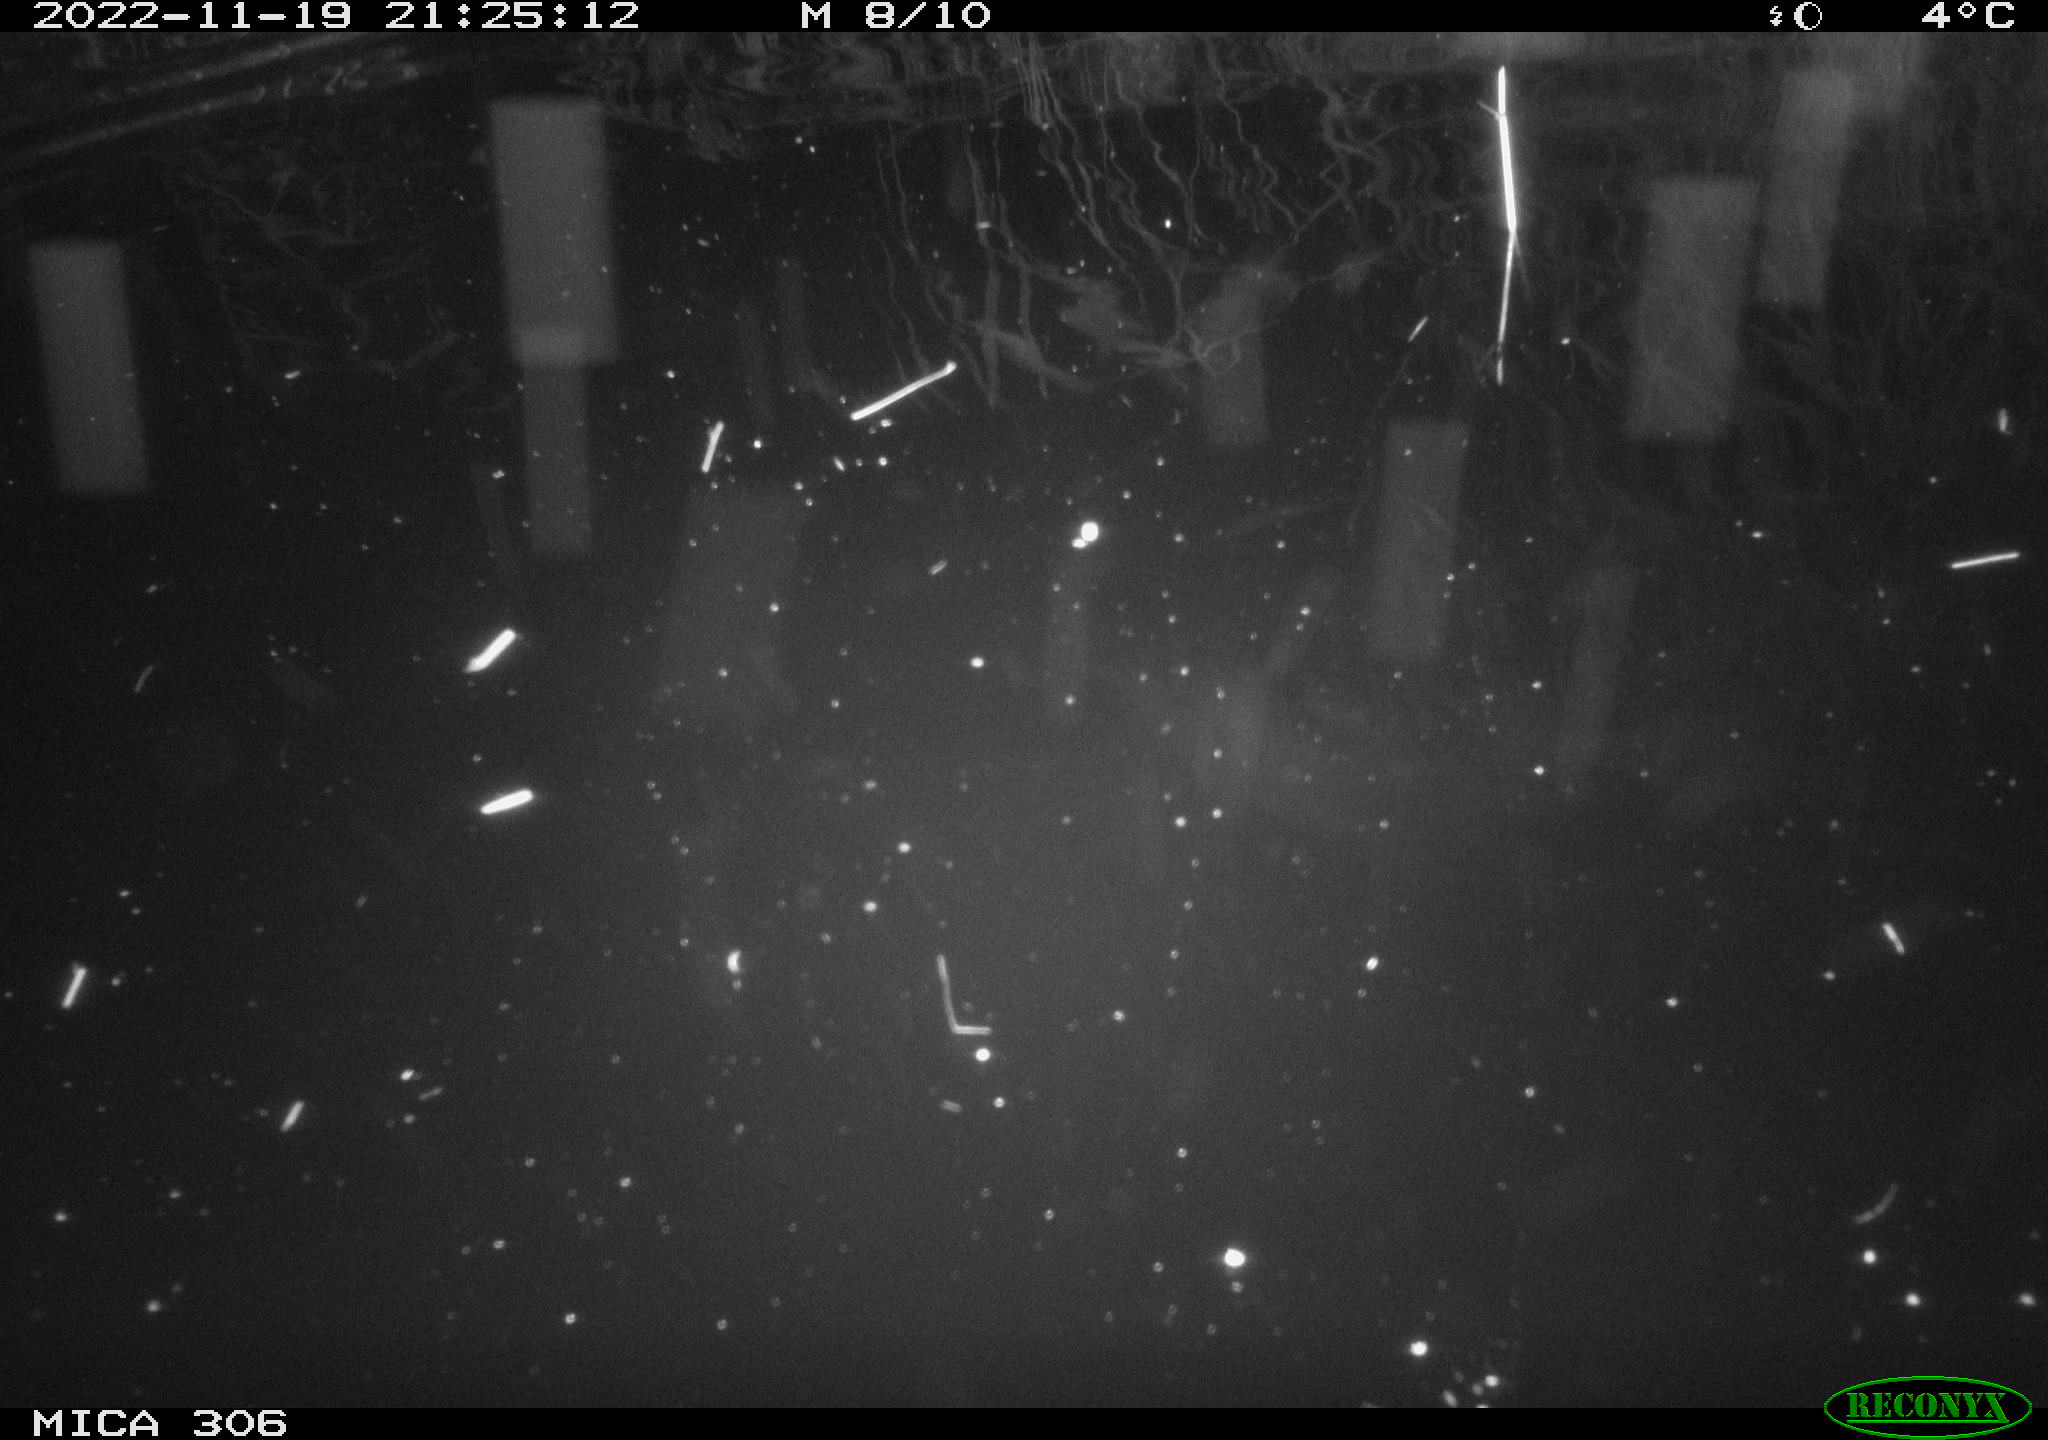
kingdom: Animalia
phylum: Chordata
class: Mammalia
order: Rodentia
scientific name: Rodentia
